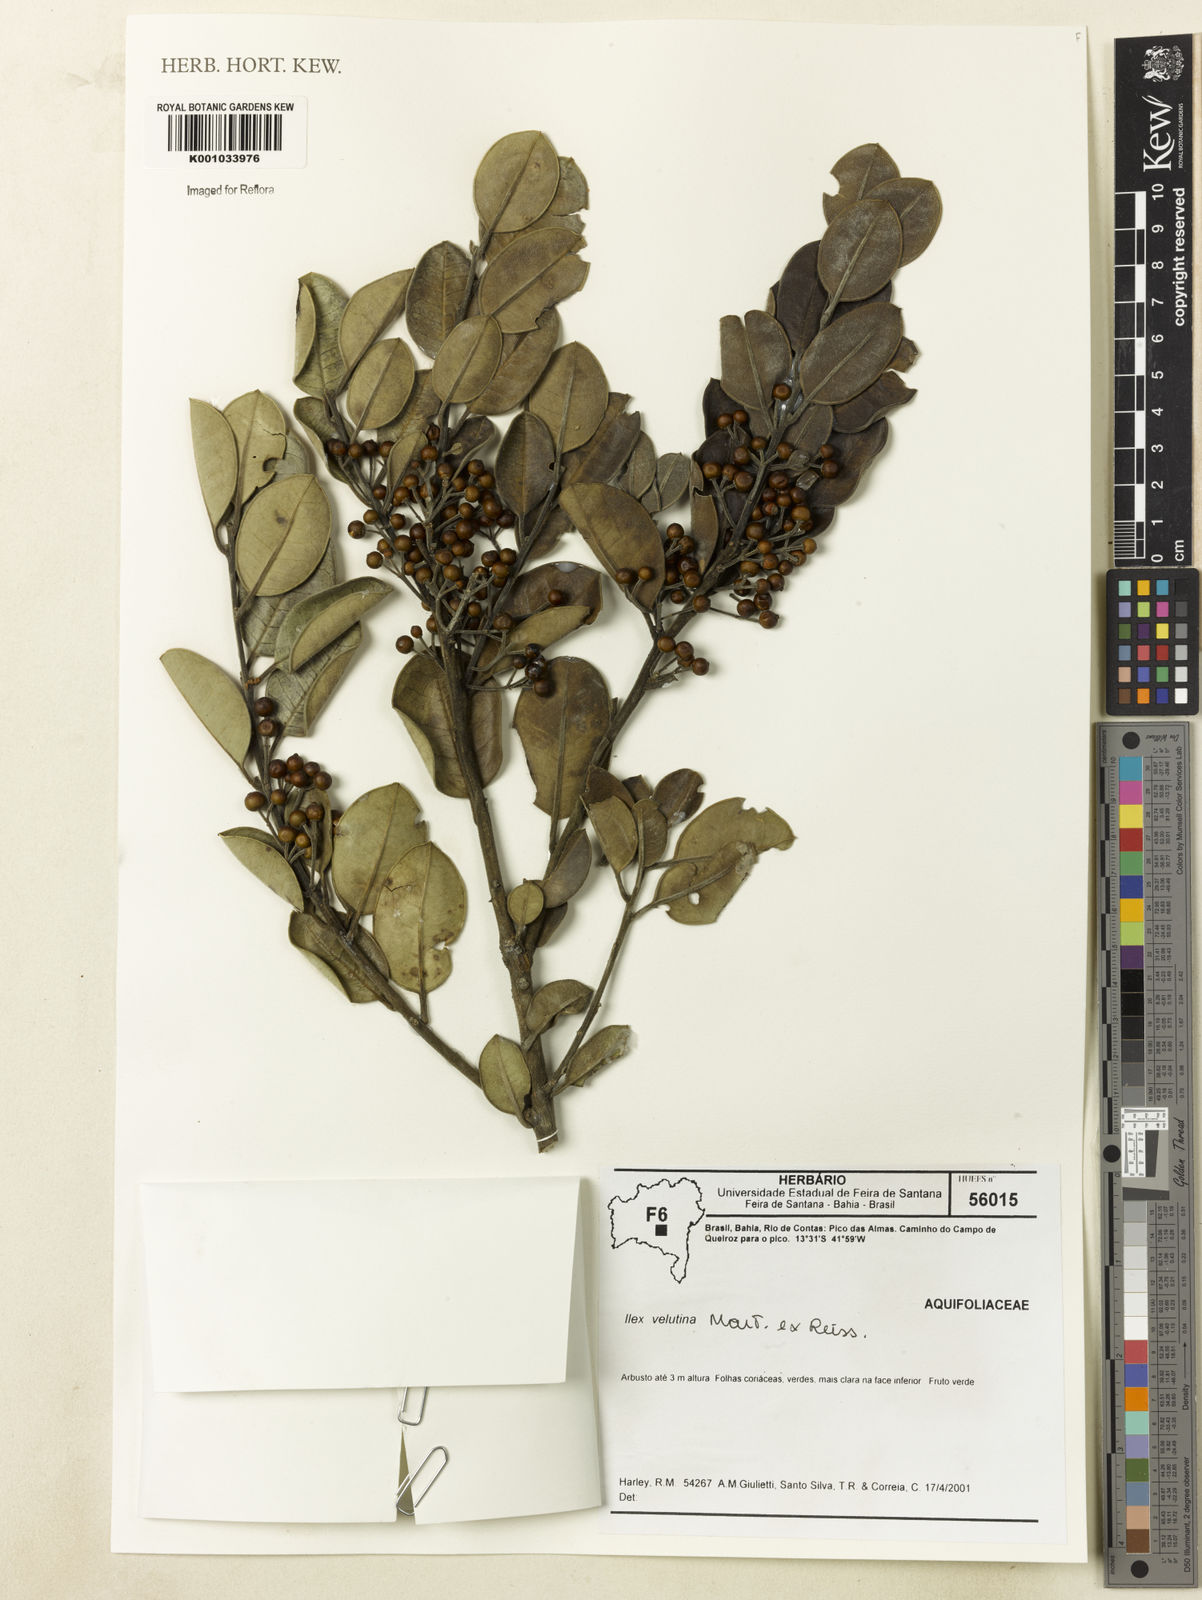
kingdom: Plantae
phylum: Tracheophyta
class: Magnoliopsida
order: Aquifoliales
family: Aquifoliaceae
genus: Ilex
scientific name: Ilex velutina
